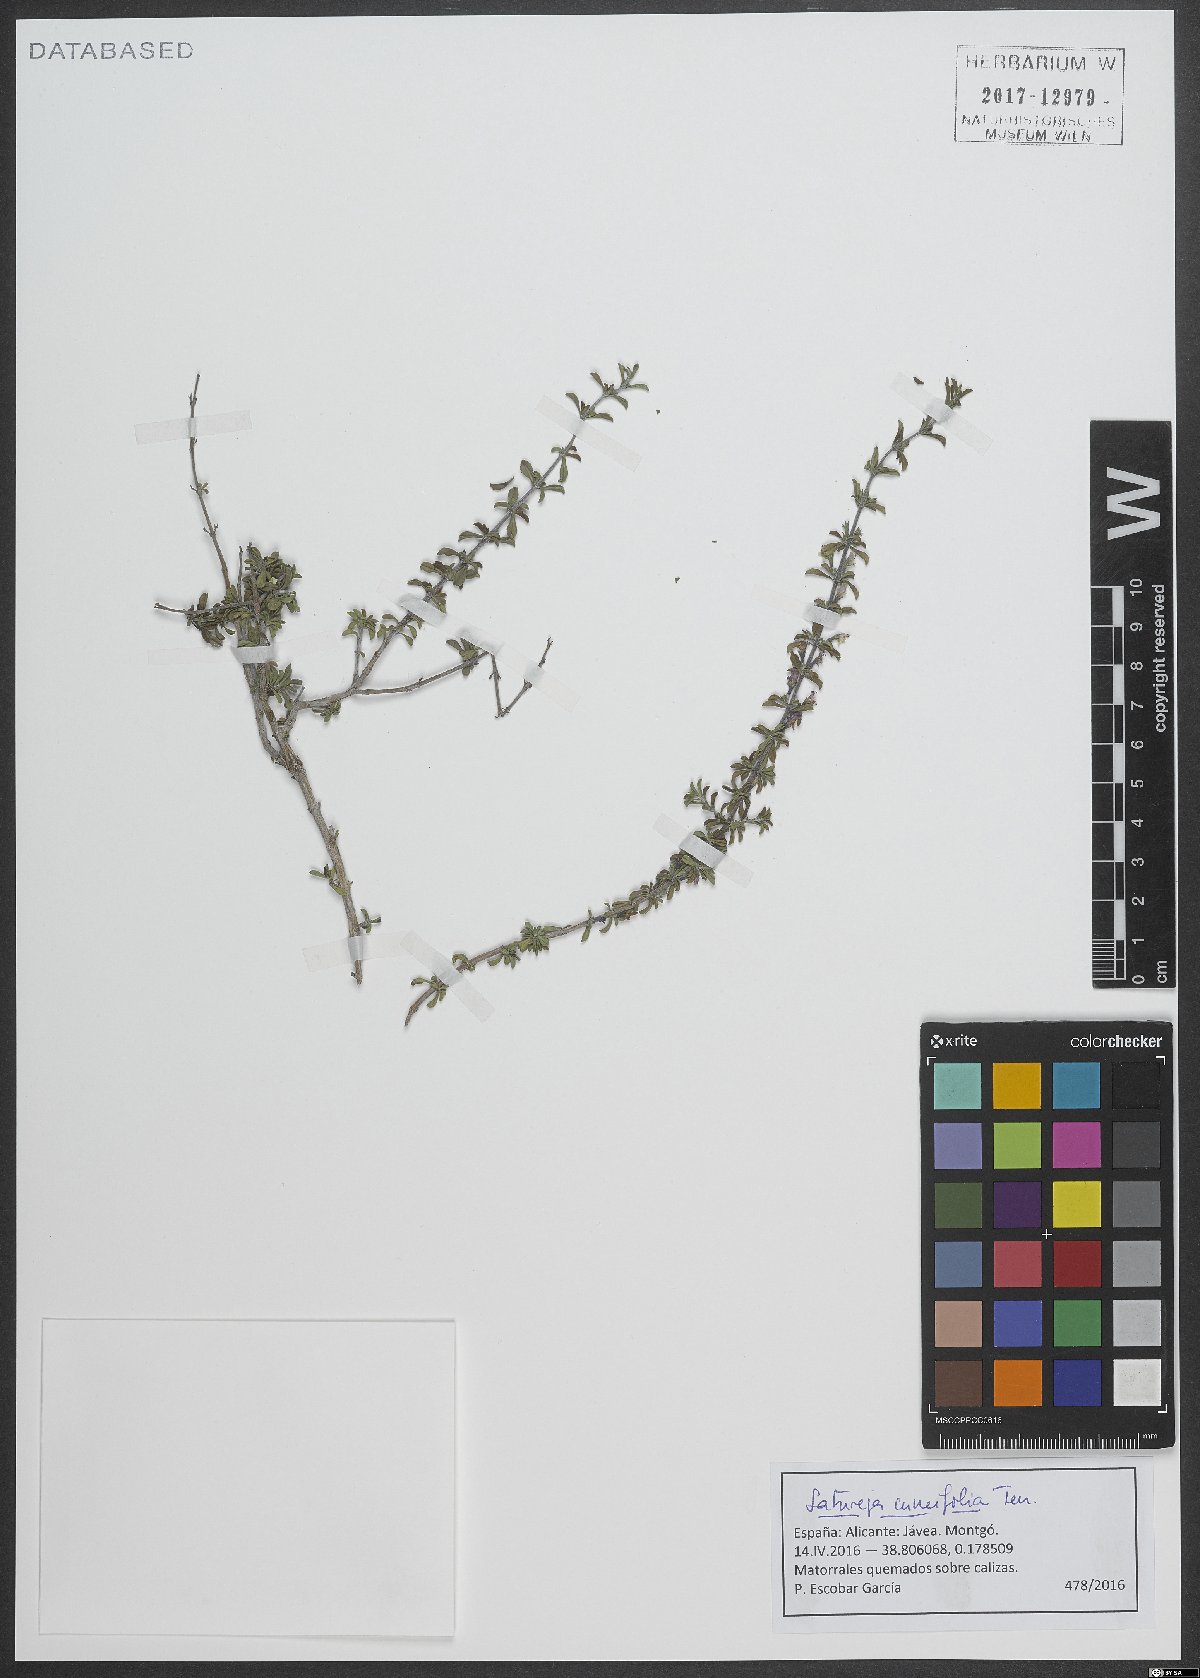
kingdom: Plantae
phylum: Tracheophyta
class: Magnoliopsida
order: Lamiales
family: Lamiaceae
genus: Satureja
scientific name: Satureja cuneifolia
